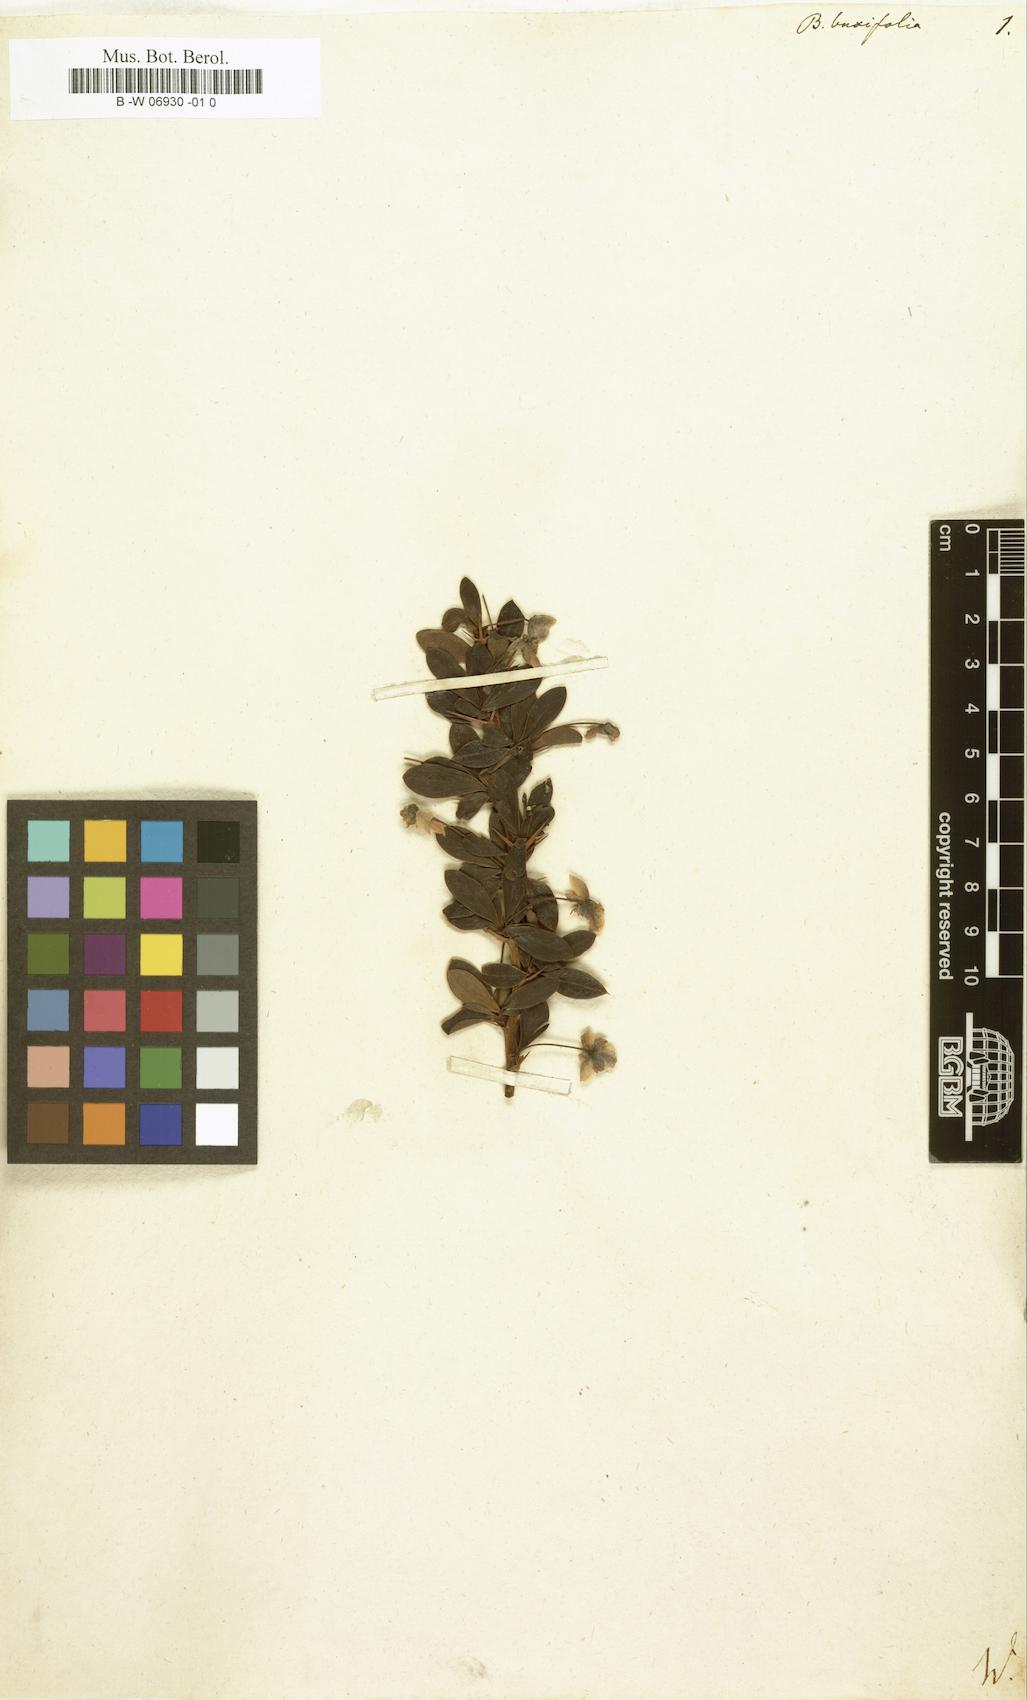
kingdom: Plantae
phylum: Tracheophyta
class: Magnoliopsida
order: Ranunculales
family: Berberidaceae
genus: Berberis
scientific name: Berberis microphylla
